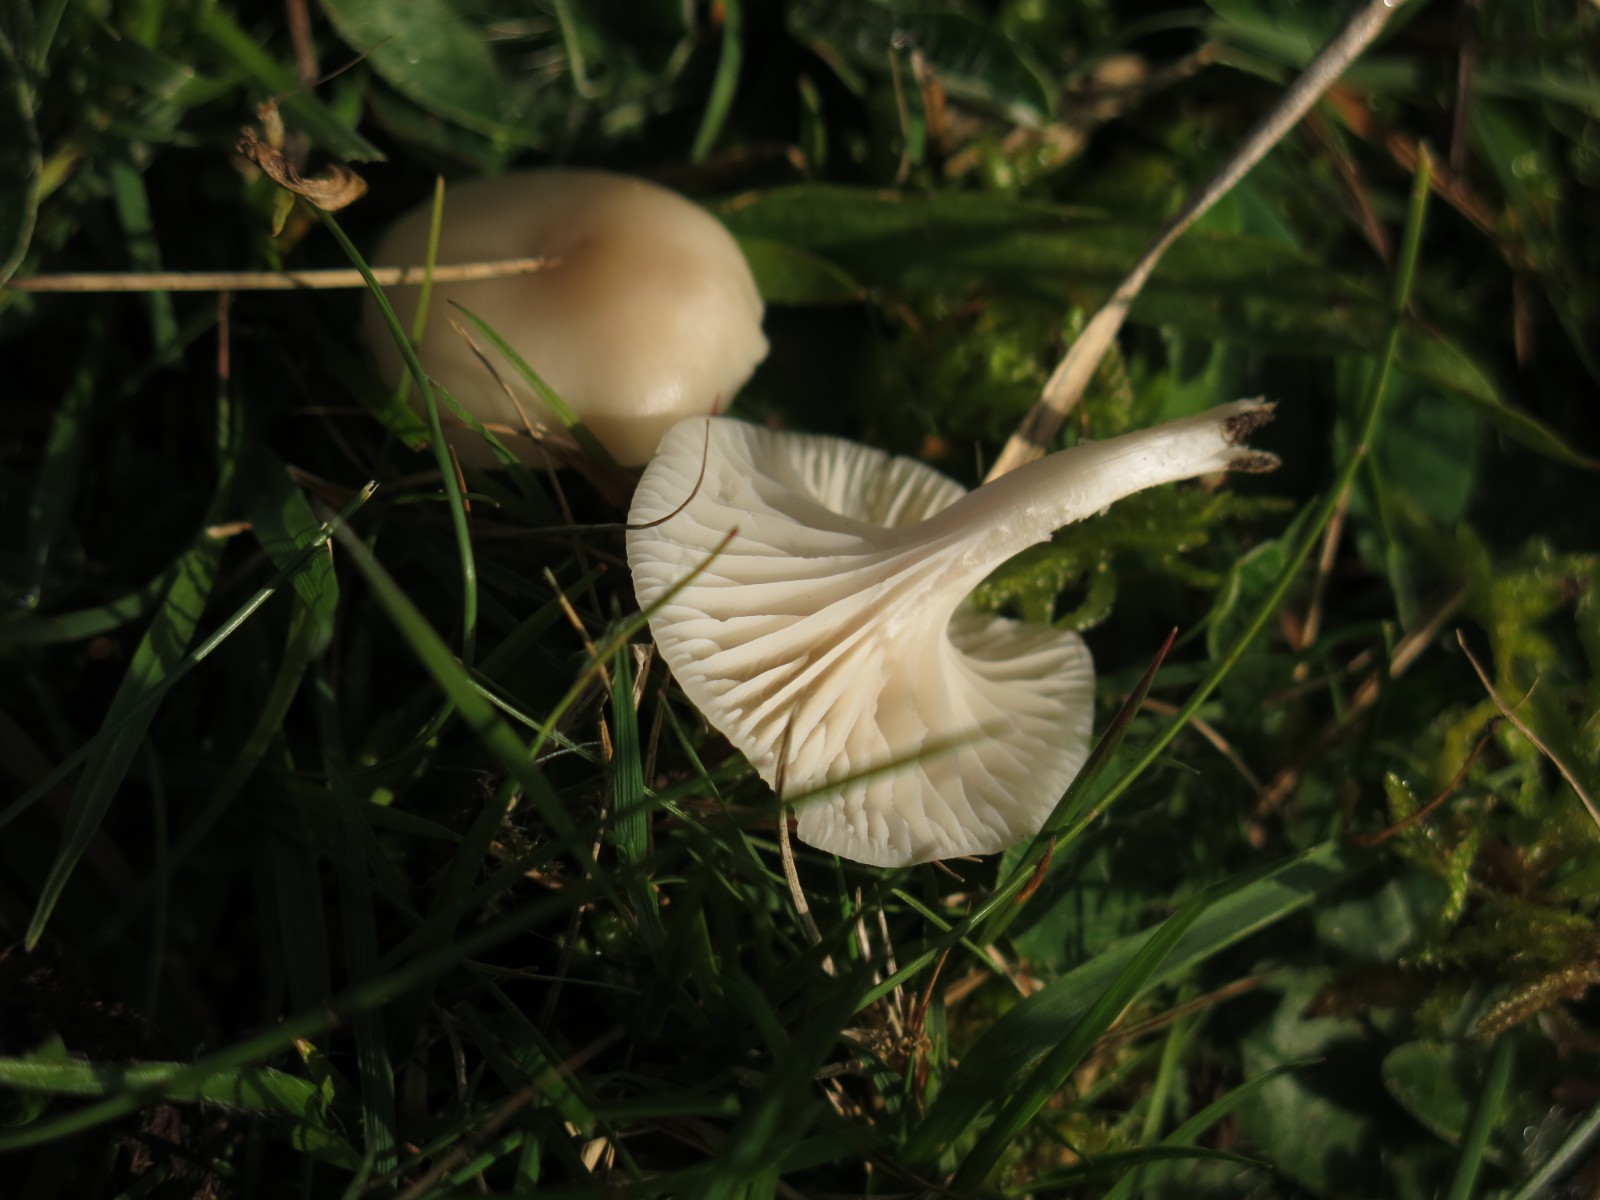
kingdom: Fungi
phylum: Basidiomycota
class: Agaricomycetes
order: Agaricales
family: Hygrophoraceae
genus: Cuphophyllus
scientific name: Cuphophyllus virgineus
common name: isabella-vokshat
